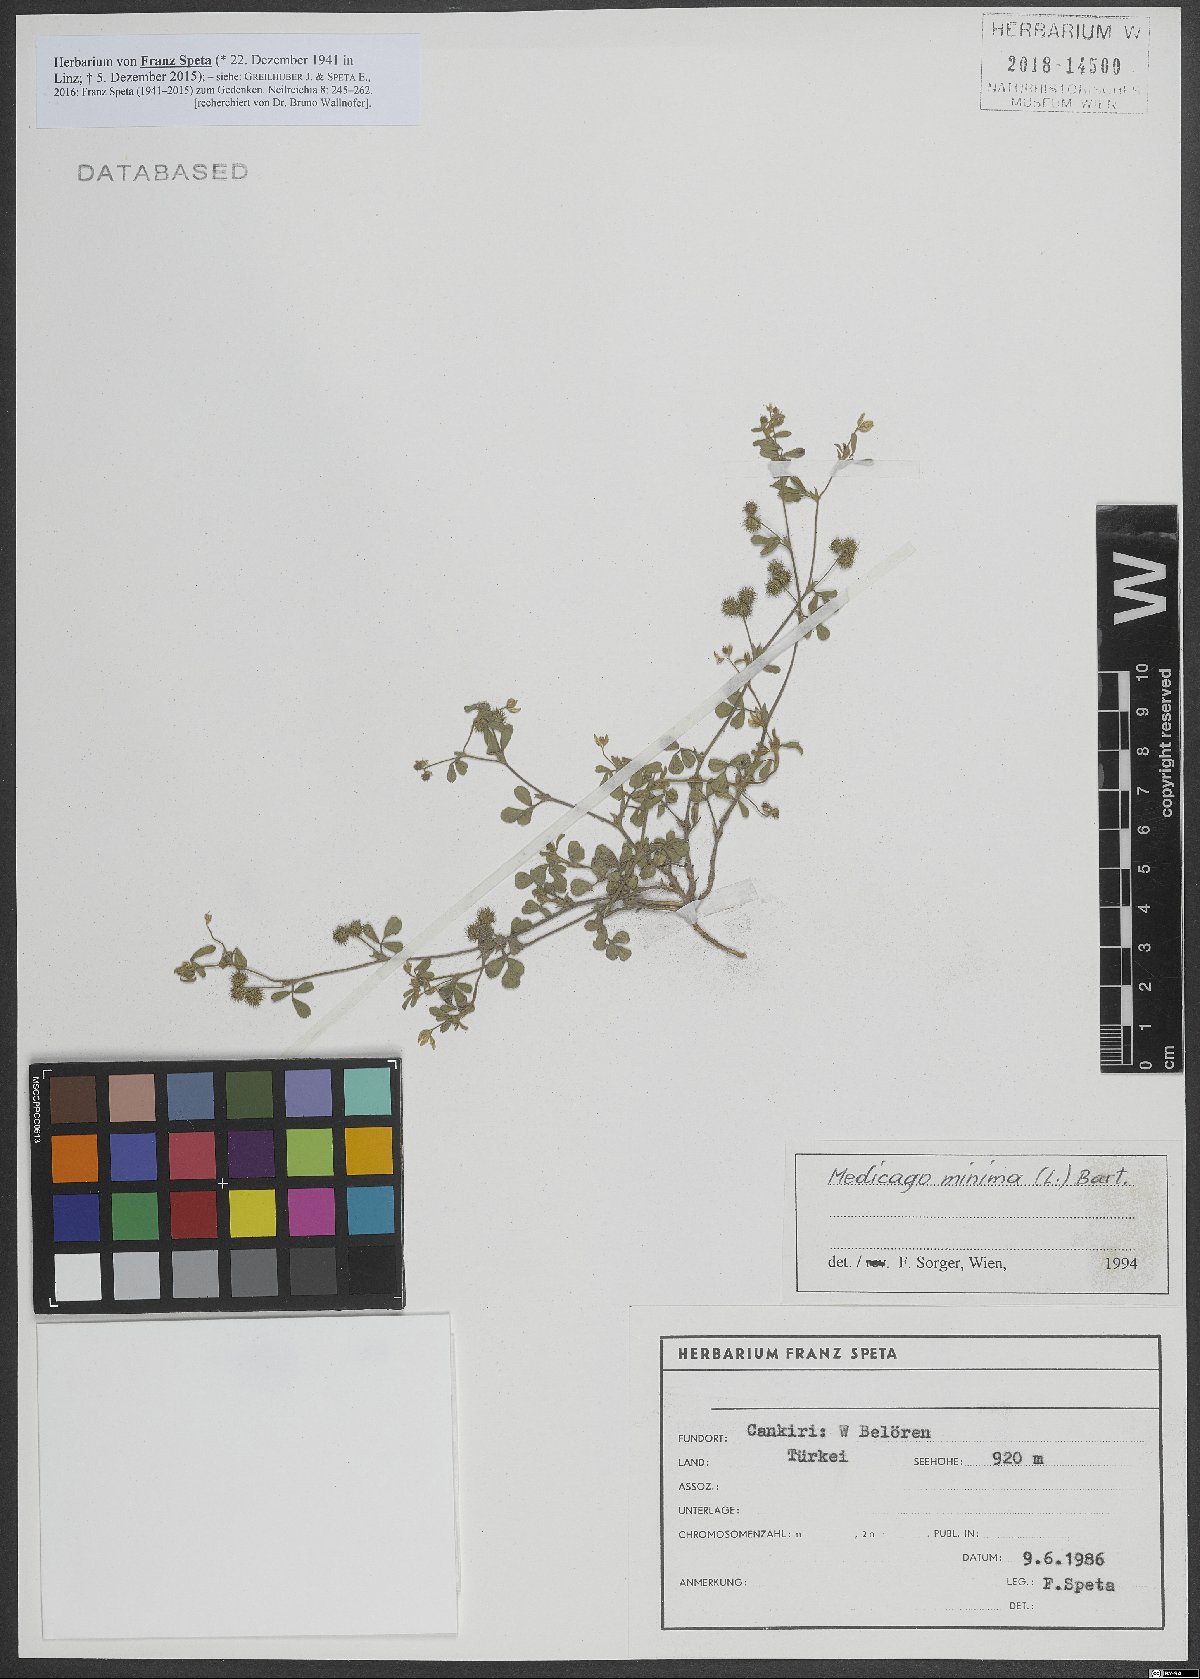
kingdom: Plantae
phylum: Tracheophyta
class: Magnoliopsida
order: Fabales
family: Fabaceae
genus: Medicago
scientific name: Medicago minima
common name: Little bur-clover
